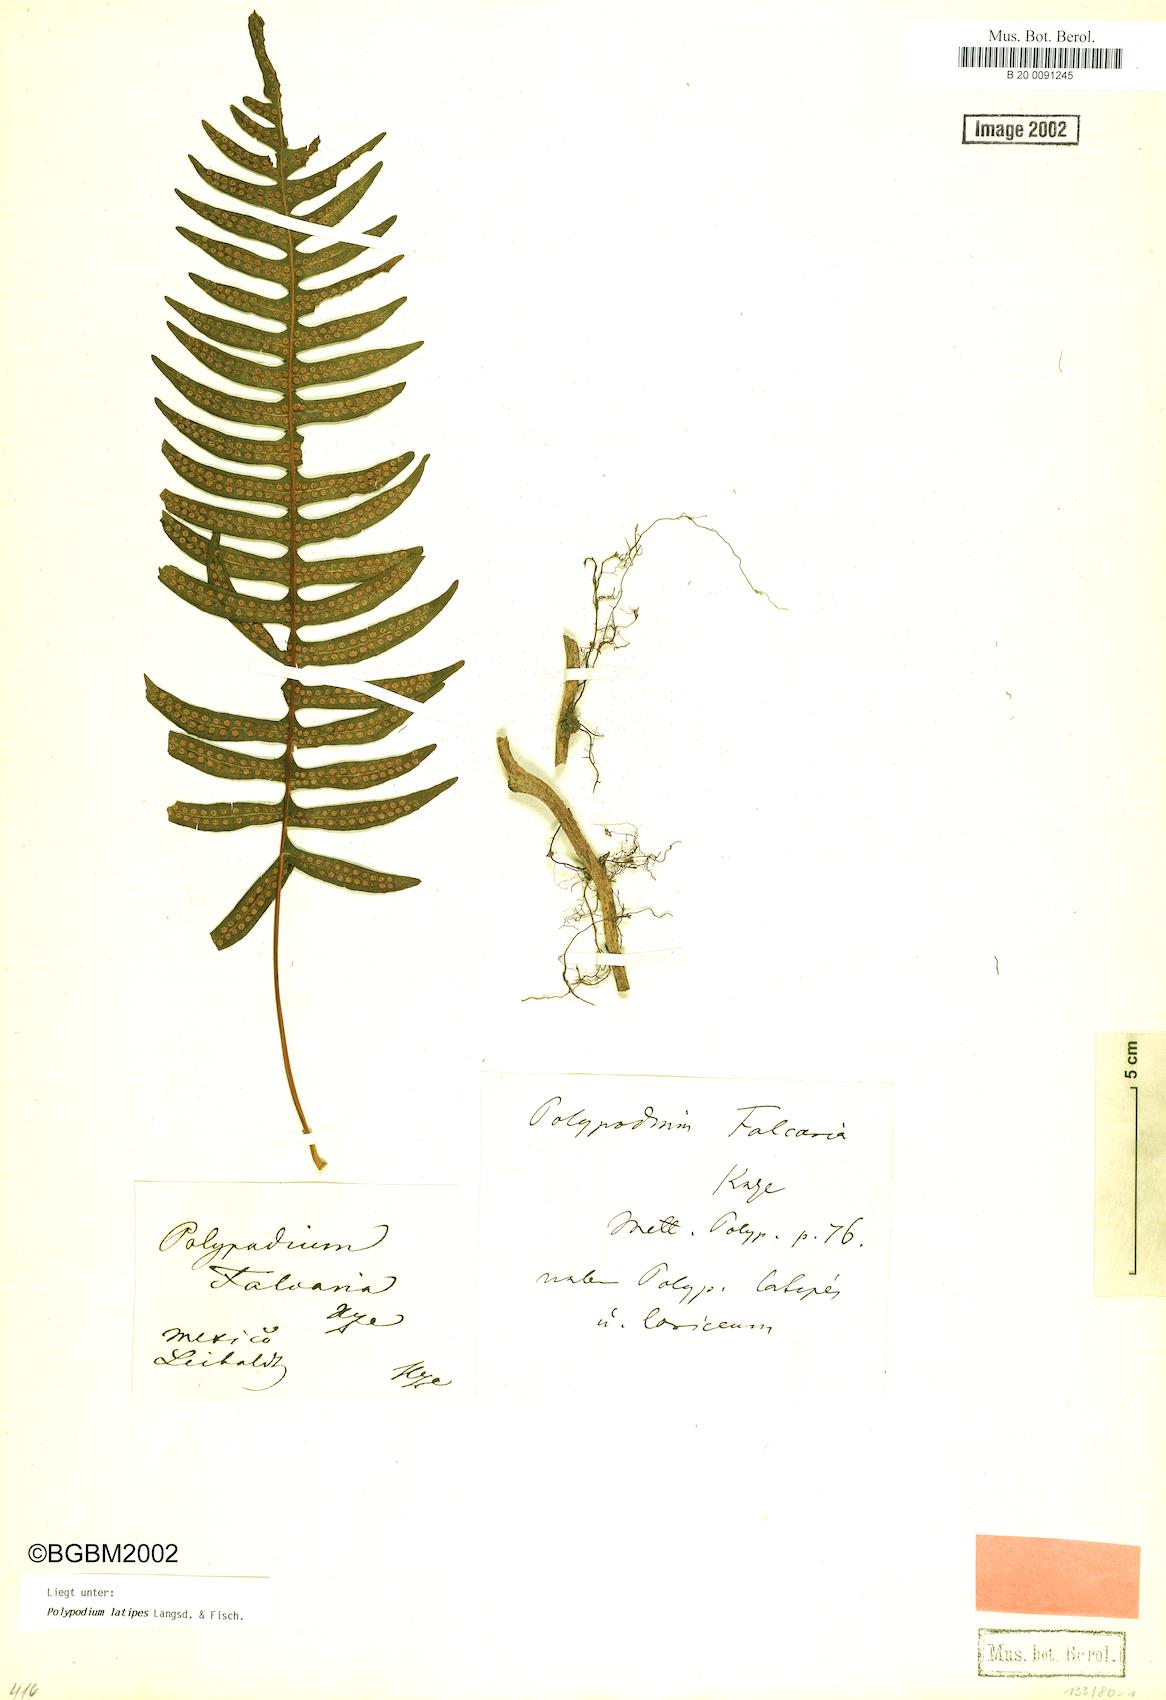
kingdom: Plantae
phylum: Tracheophyta
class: Polypodiopsida
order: Polypodiales
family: Polypodiaceae
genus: Serpocaulon
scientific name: Serpocaulon falcaria
